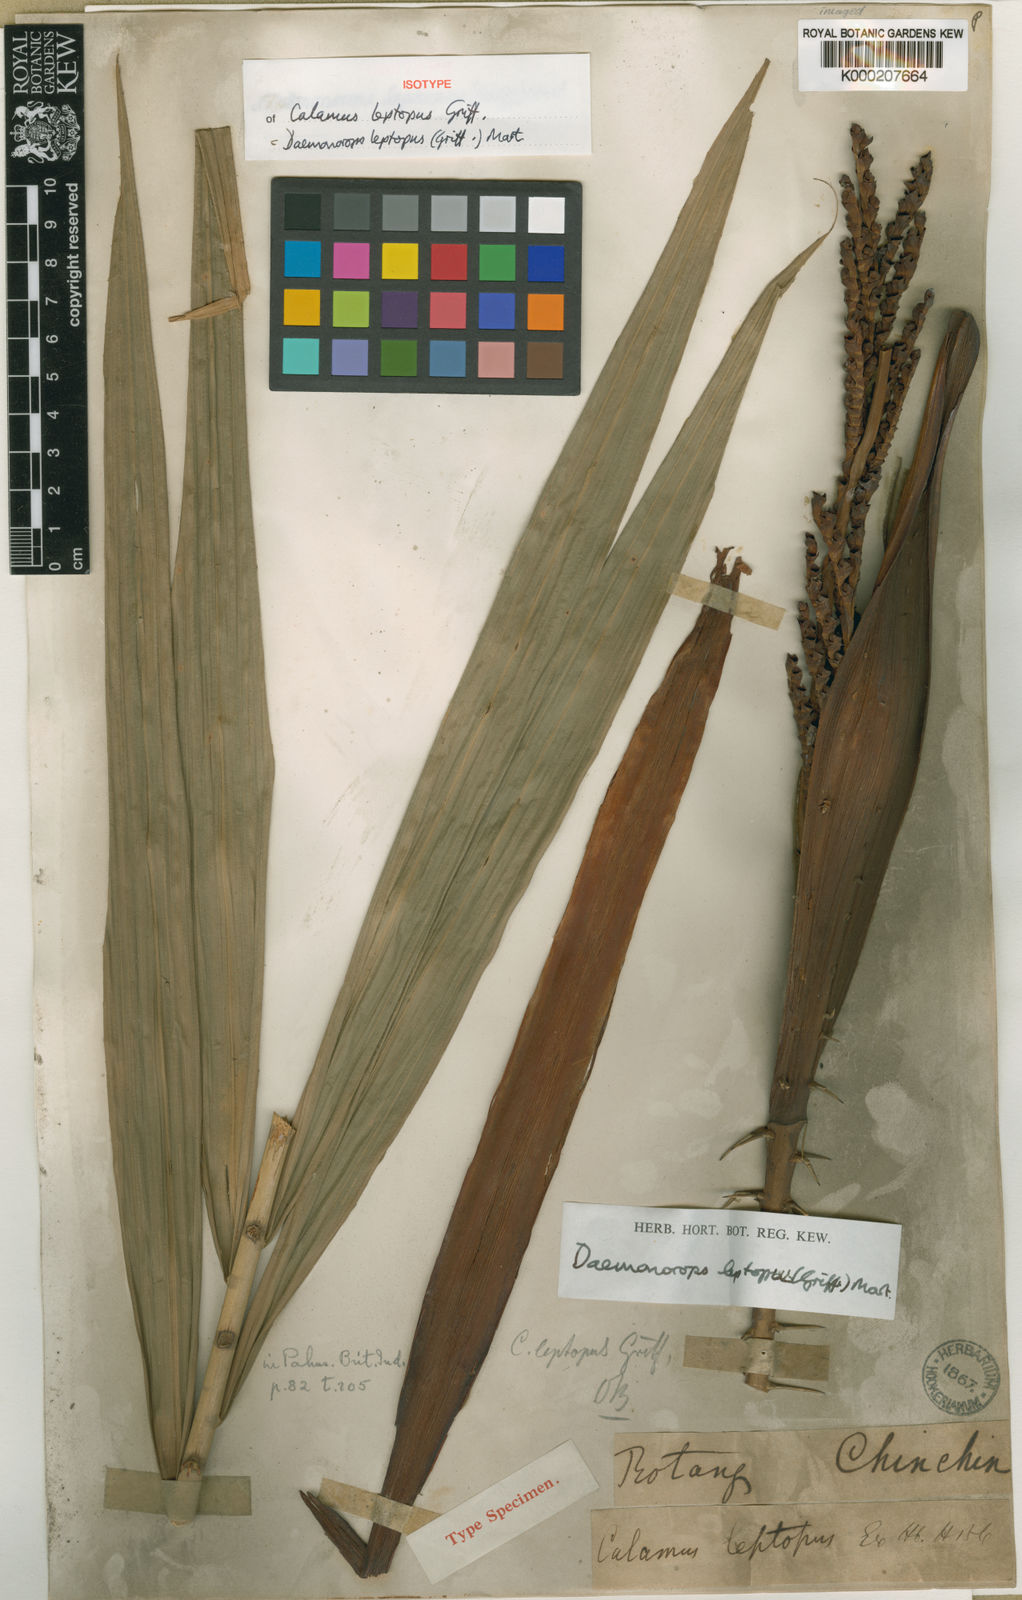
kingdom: Plantae
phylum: Tracheophyta
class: Liliopsida
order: Arecales
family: Arecaceae
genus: Calamus
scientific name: Calamus leptopus
